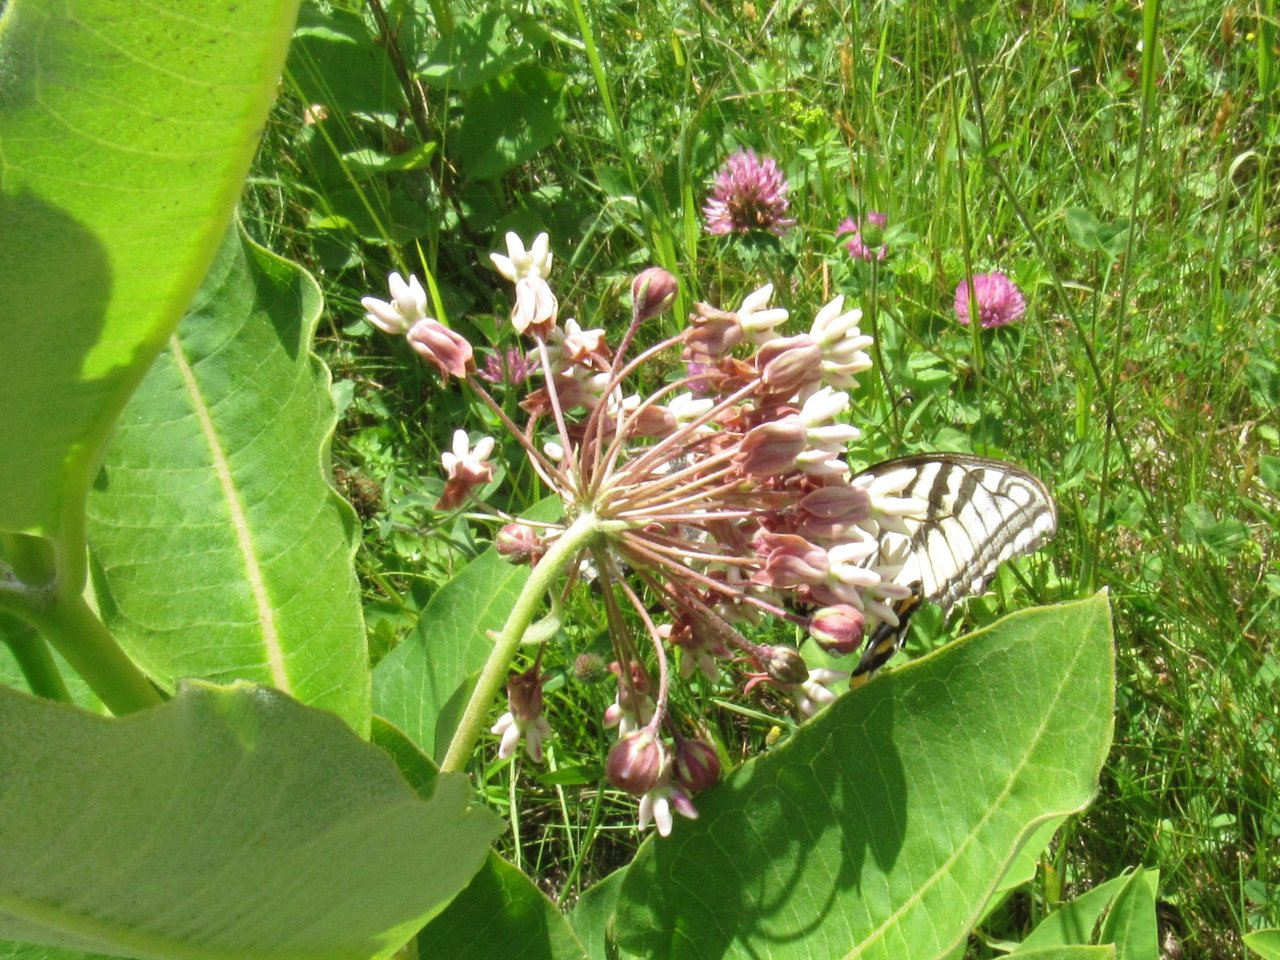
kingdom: Animalia
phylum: Arthropoda
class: Insecta
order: Lepidoptera
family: Papilionidae
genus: Pterourus
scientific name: Pterourus
